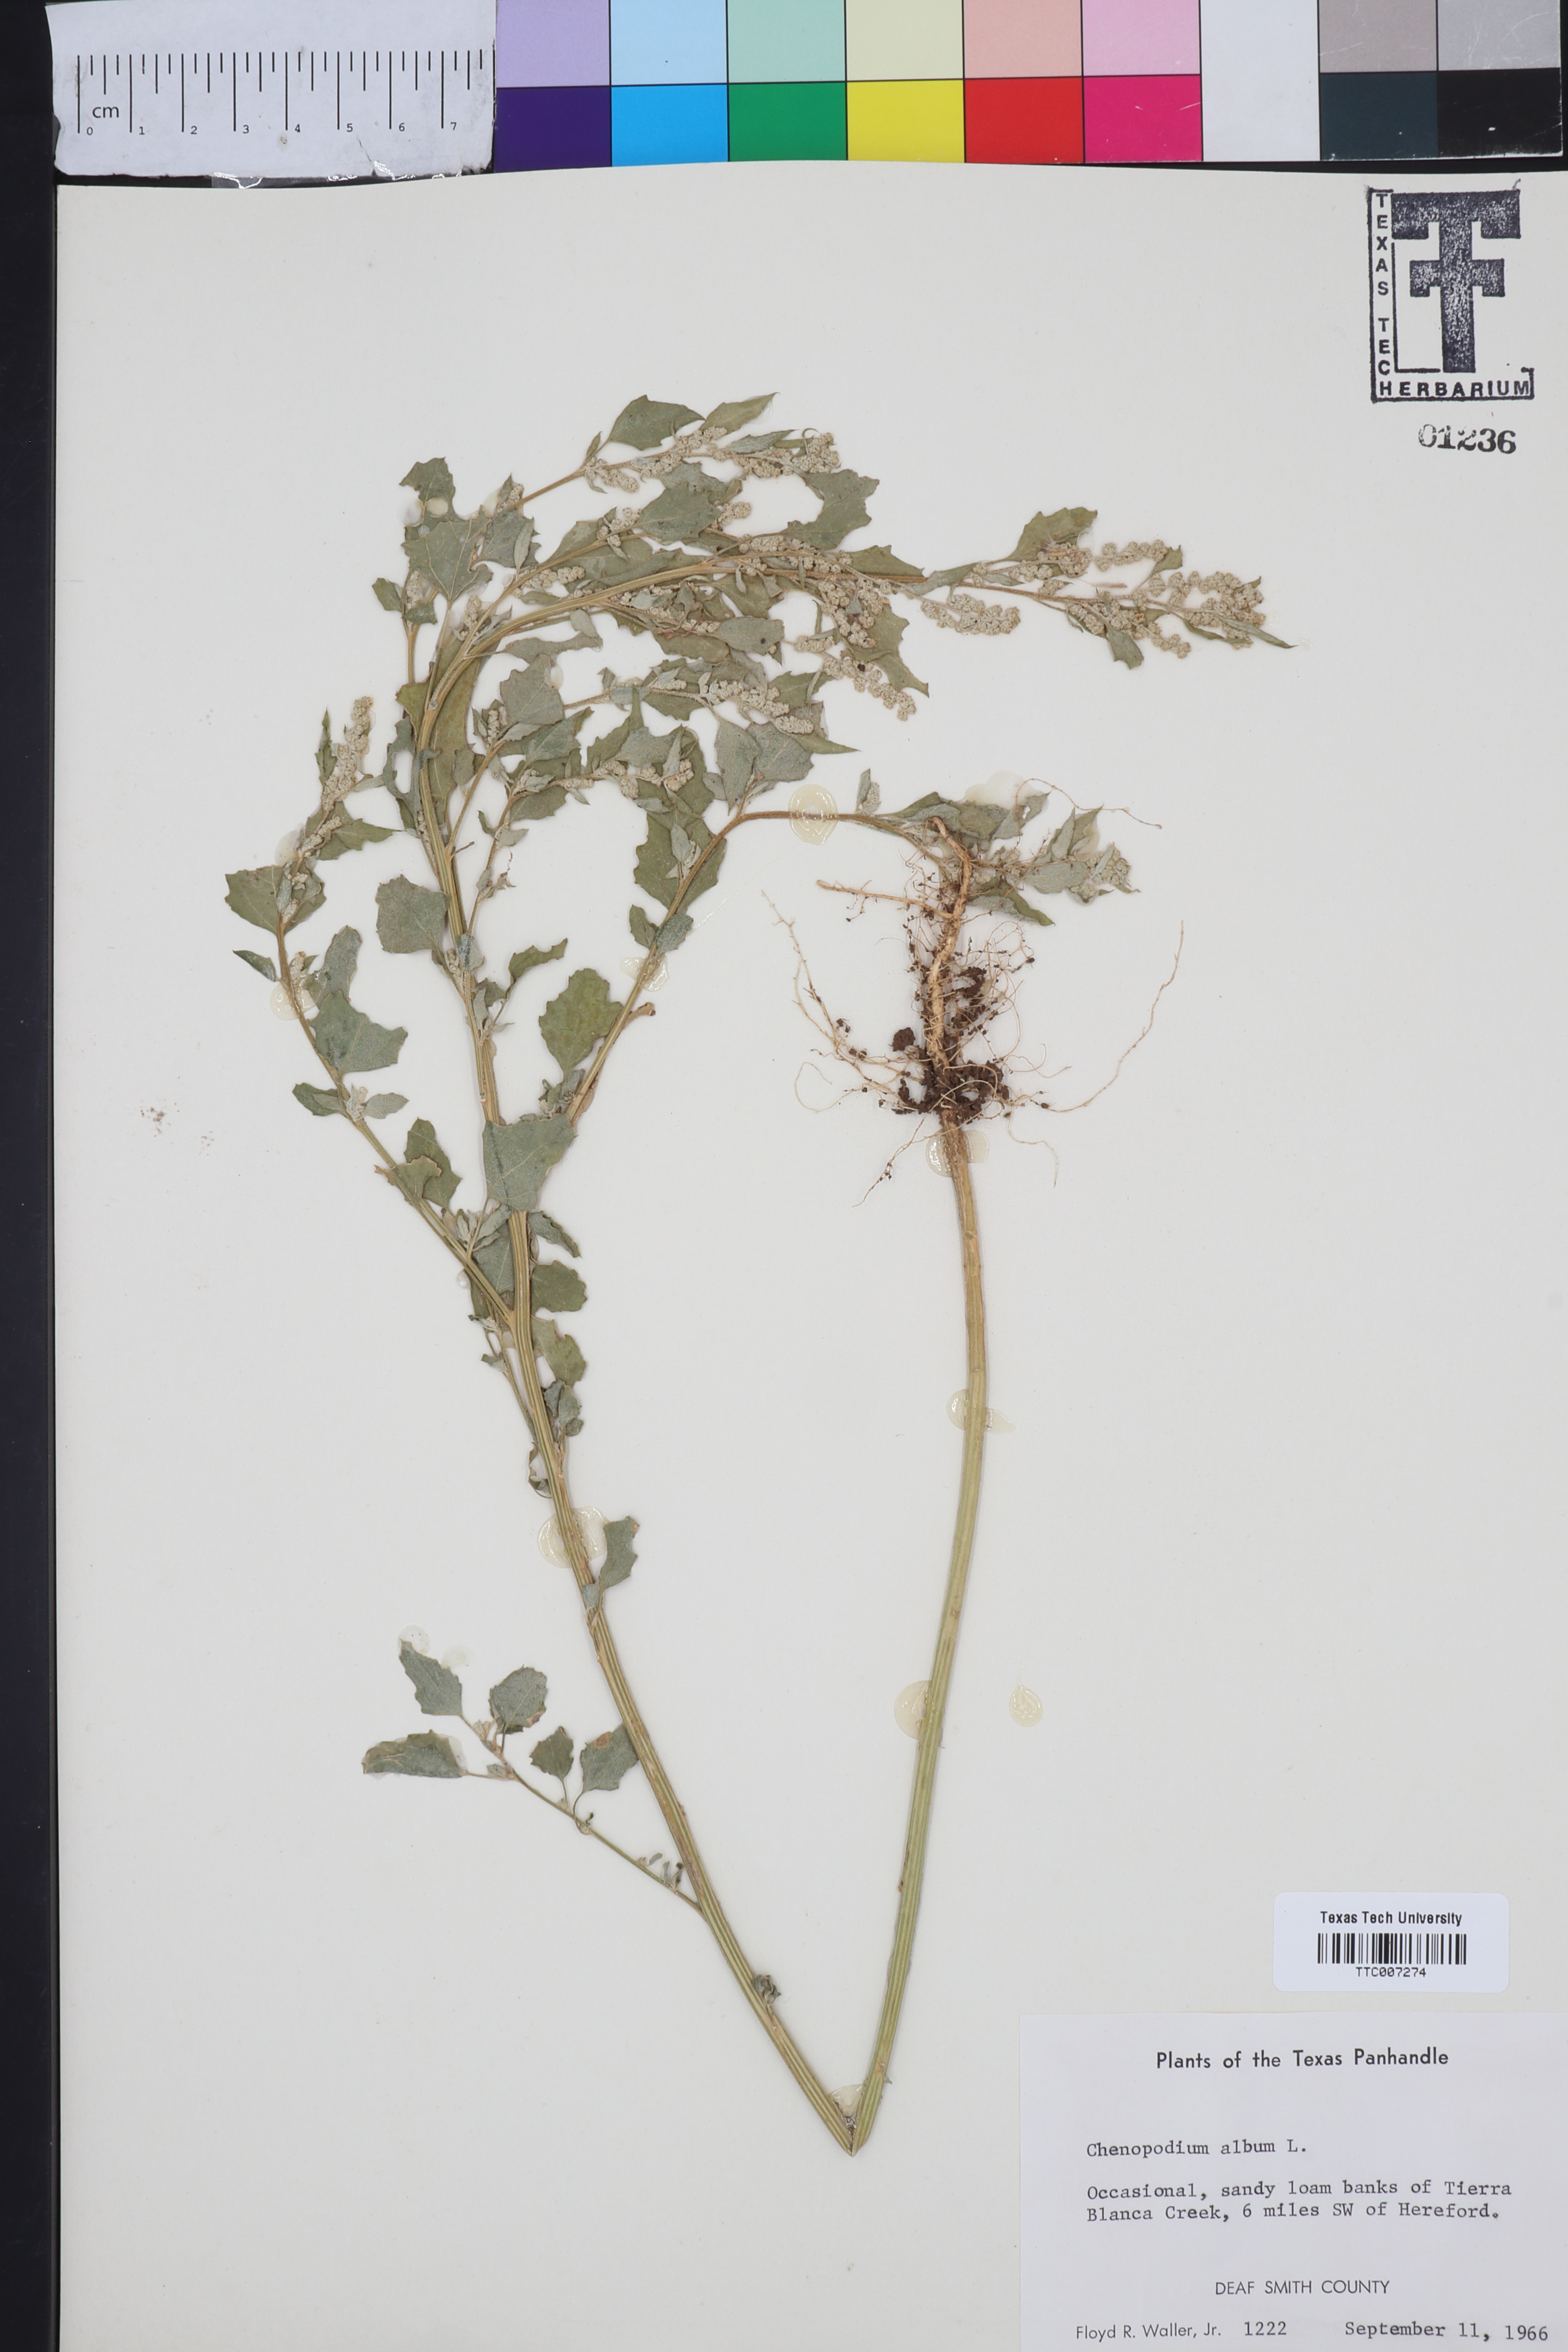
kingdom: Plantae
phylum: Tracheophyta
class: Magnoliopsida
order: Caryophyllales
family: Amaranthaceae
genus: Chenopodium
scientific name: Chenopodium album
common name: Fat-hen
